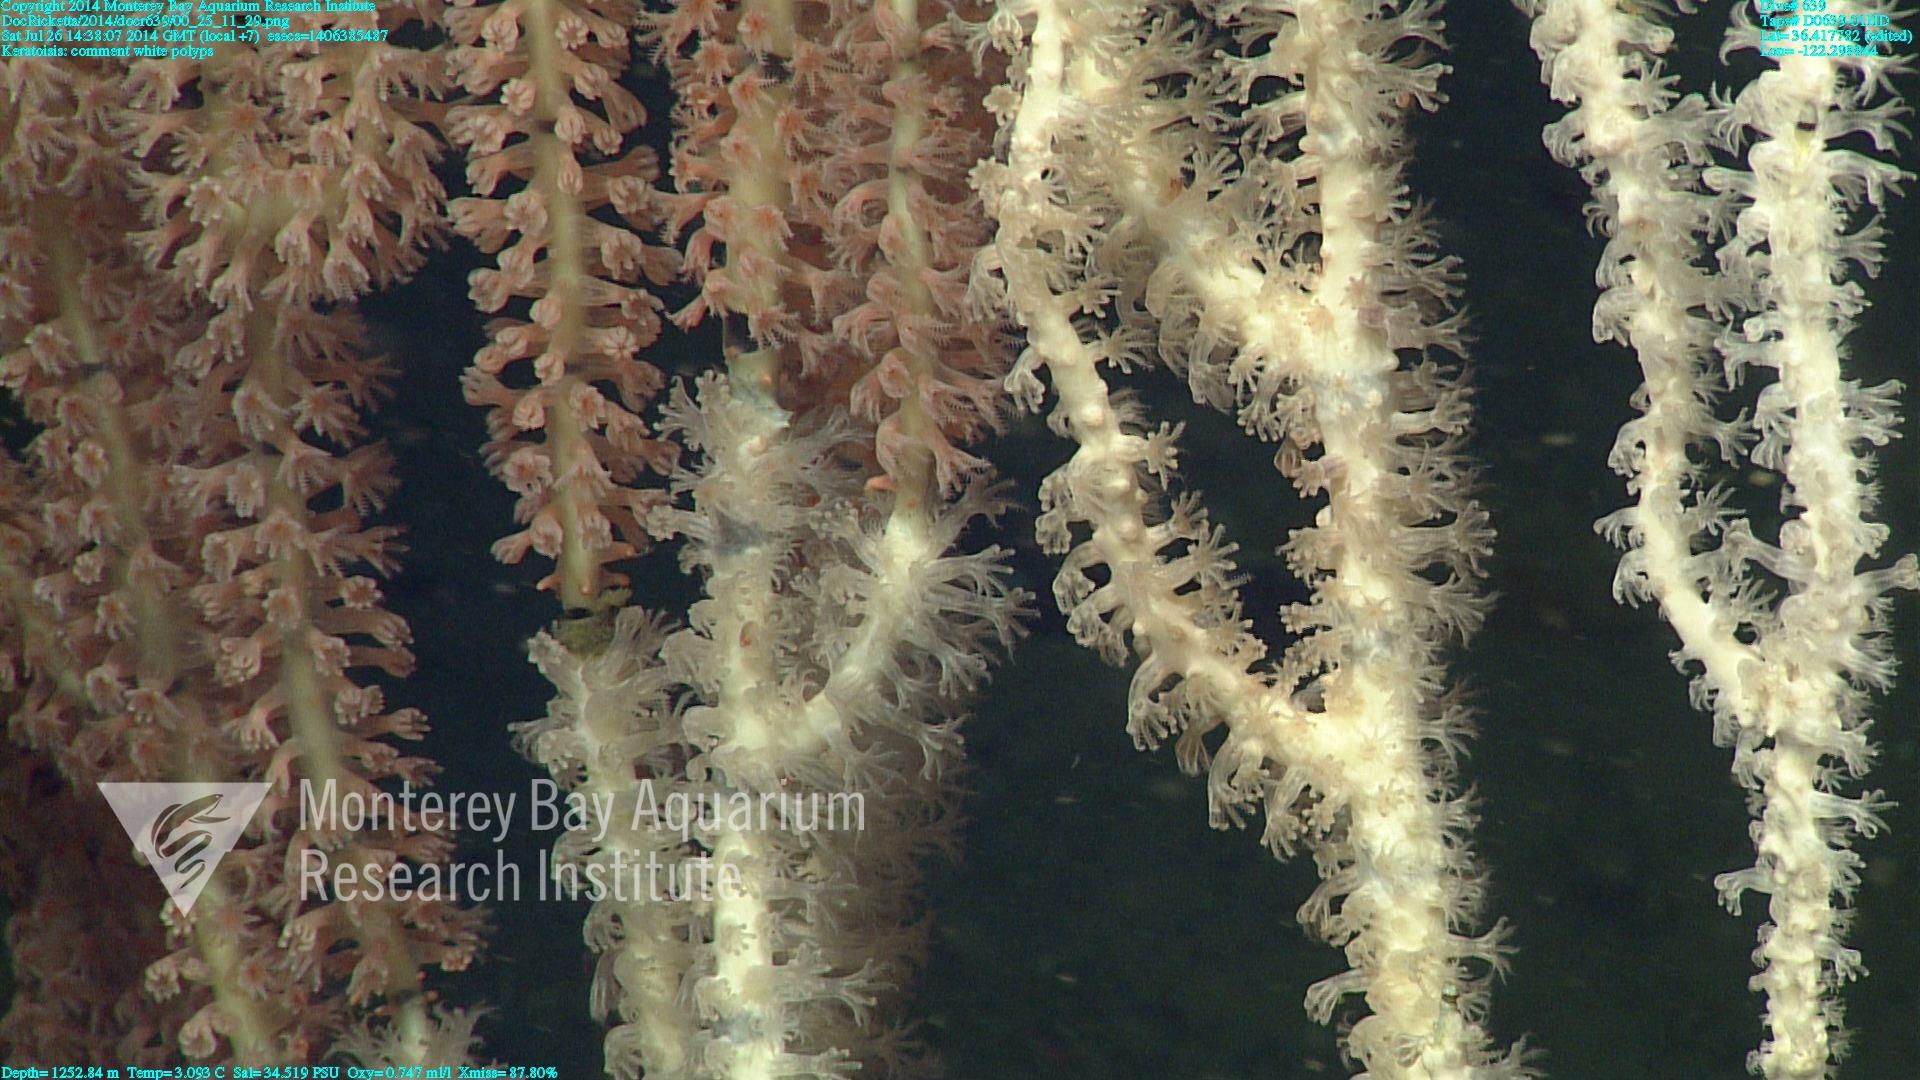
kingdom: Animalia
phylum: Cnidaria
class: Anthozoa
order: Scleralcyonacea
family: Keratoisididae
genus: Keratoisis
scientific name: Keratoisis
